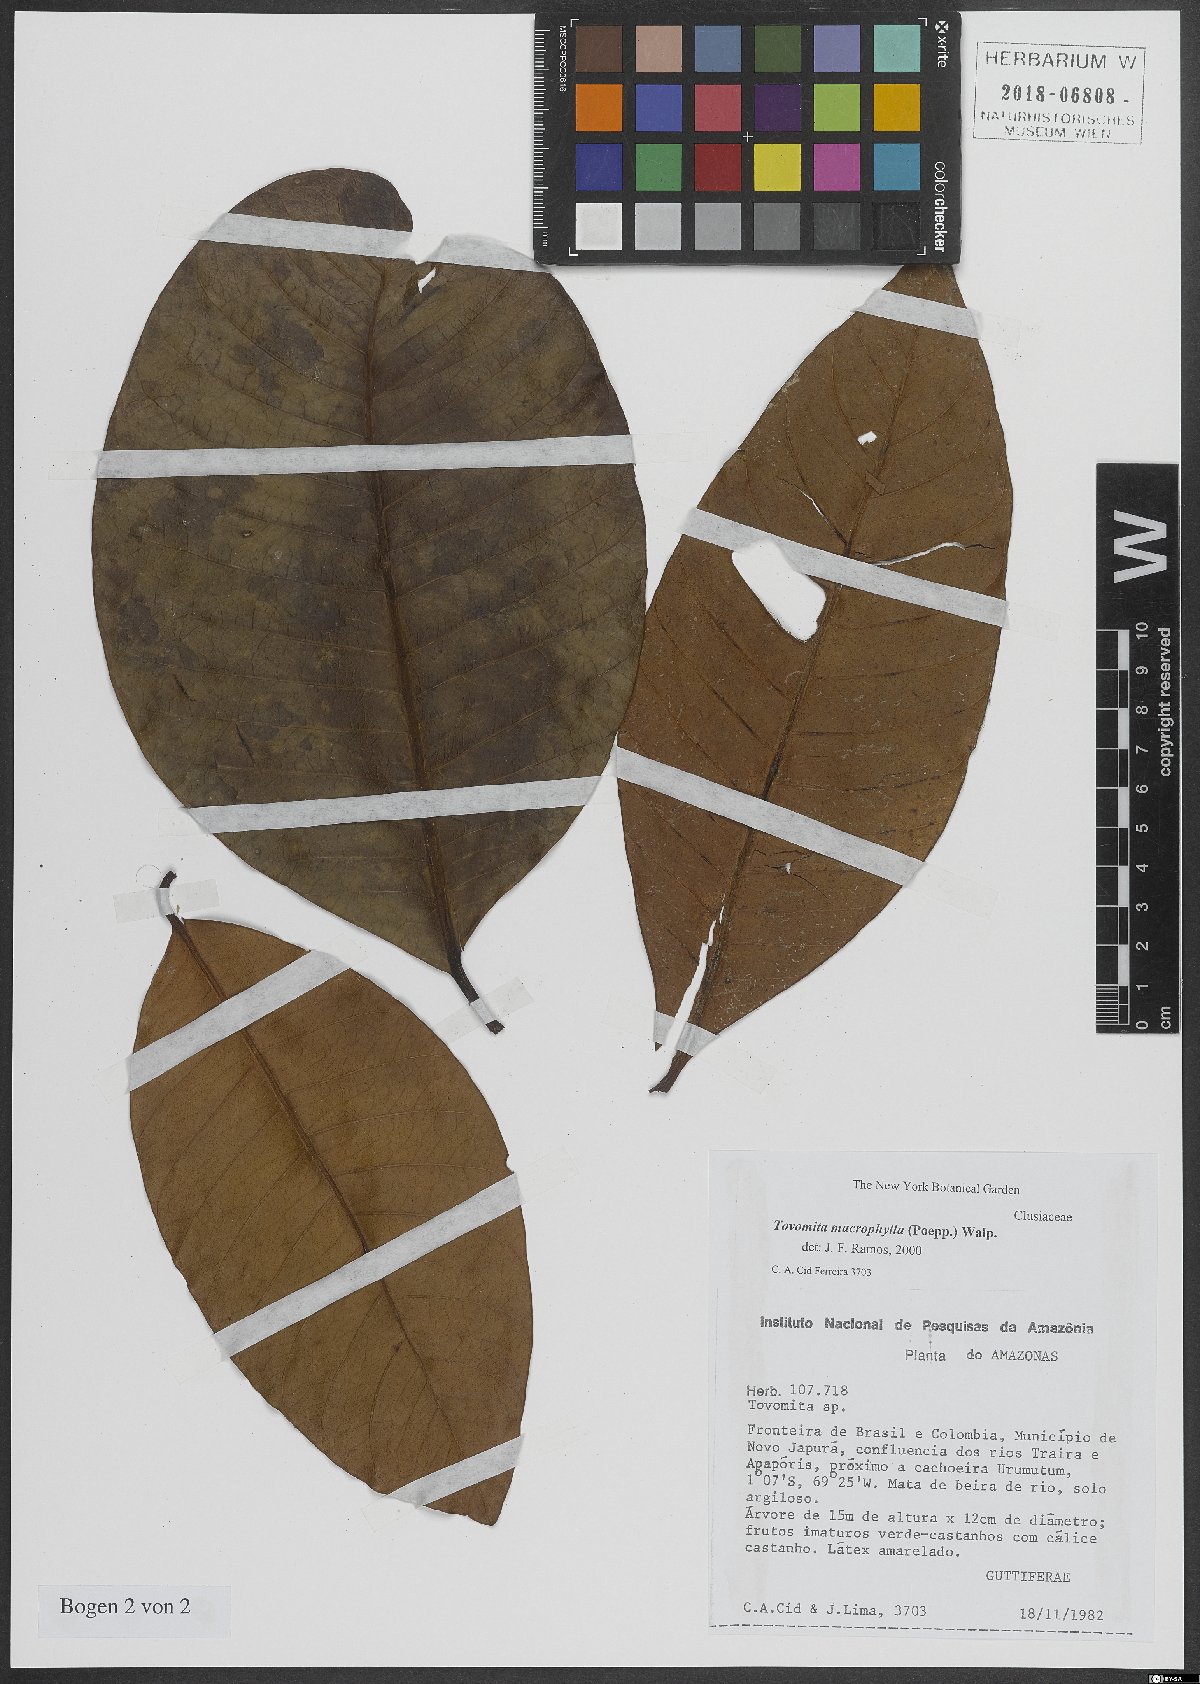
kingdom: Plantae
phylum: Tracheophyta
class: Magnoliopsida
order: Malpighiales
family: Clusiaceae
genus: Tovomita
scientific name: Tovomita macrophylla
